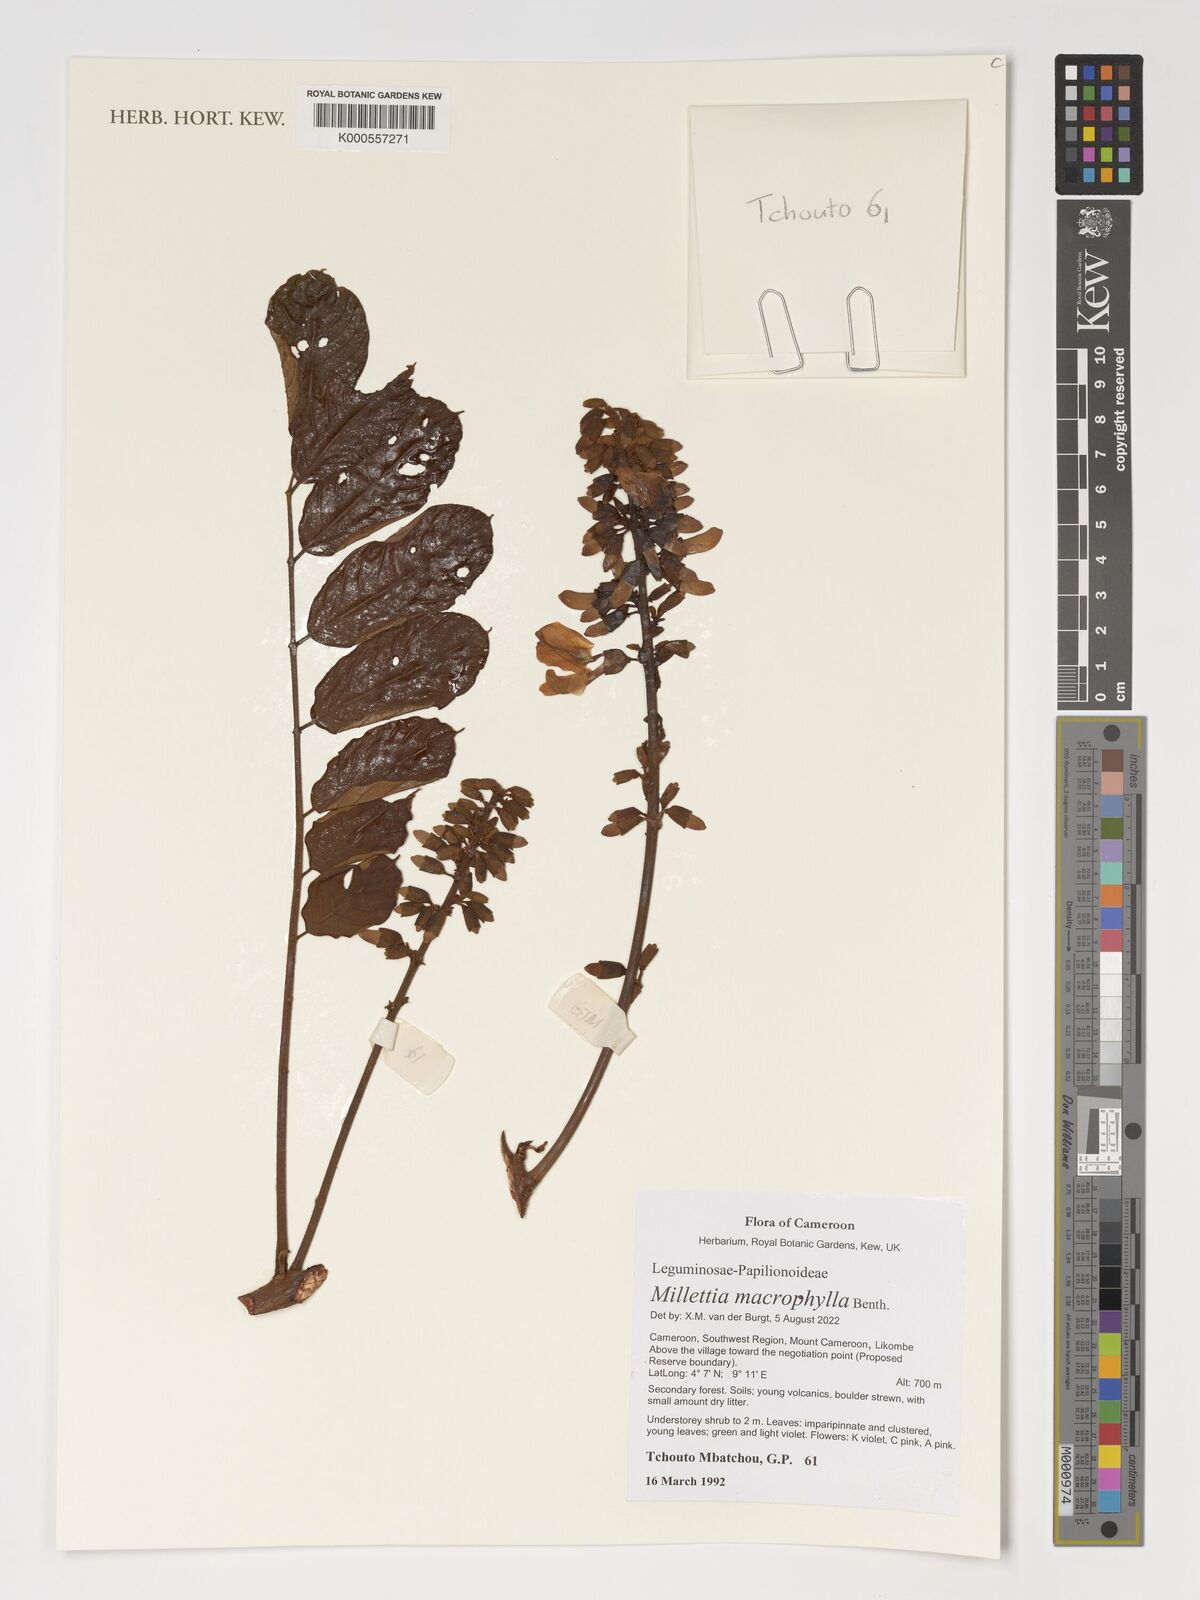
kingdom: Plantae
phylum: Tracheophyta
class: Magnoliopsida
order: Fabales
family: Fabaceae
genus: Millettia
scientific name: Millettia macrophylla
